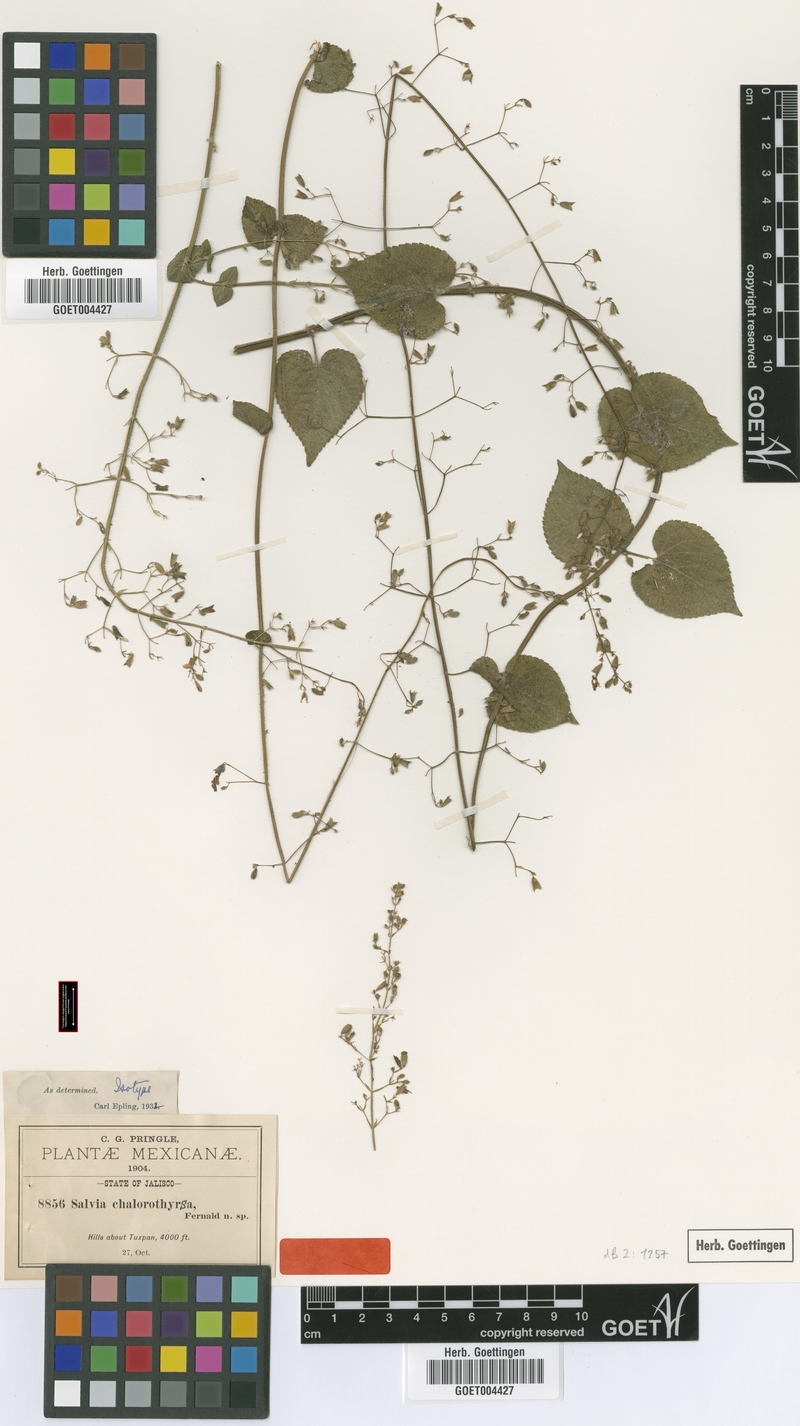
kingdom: Plantae
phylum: Tracheophyta
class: Magnoliopsida
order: Lamiales
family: Lamiaceae
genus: Salvia
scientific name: Salvia chalarothyrsa
